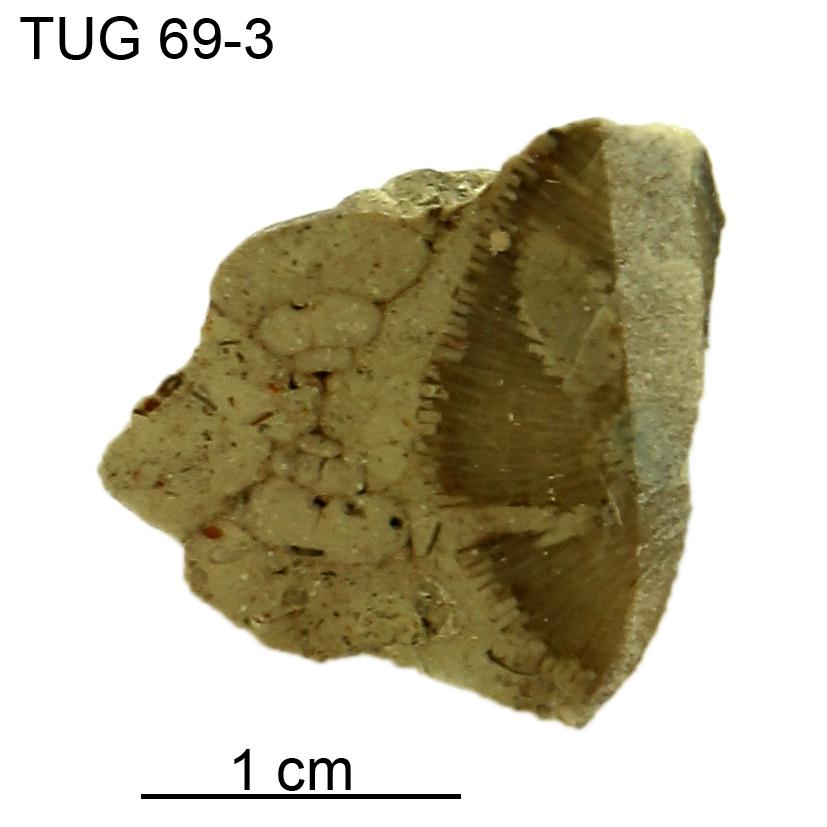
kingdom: Animalia
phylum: Mollusca
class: Gastropoda
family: Bucaniidae
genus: Megalomphala
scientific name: Megalomphala
